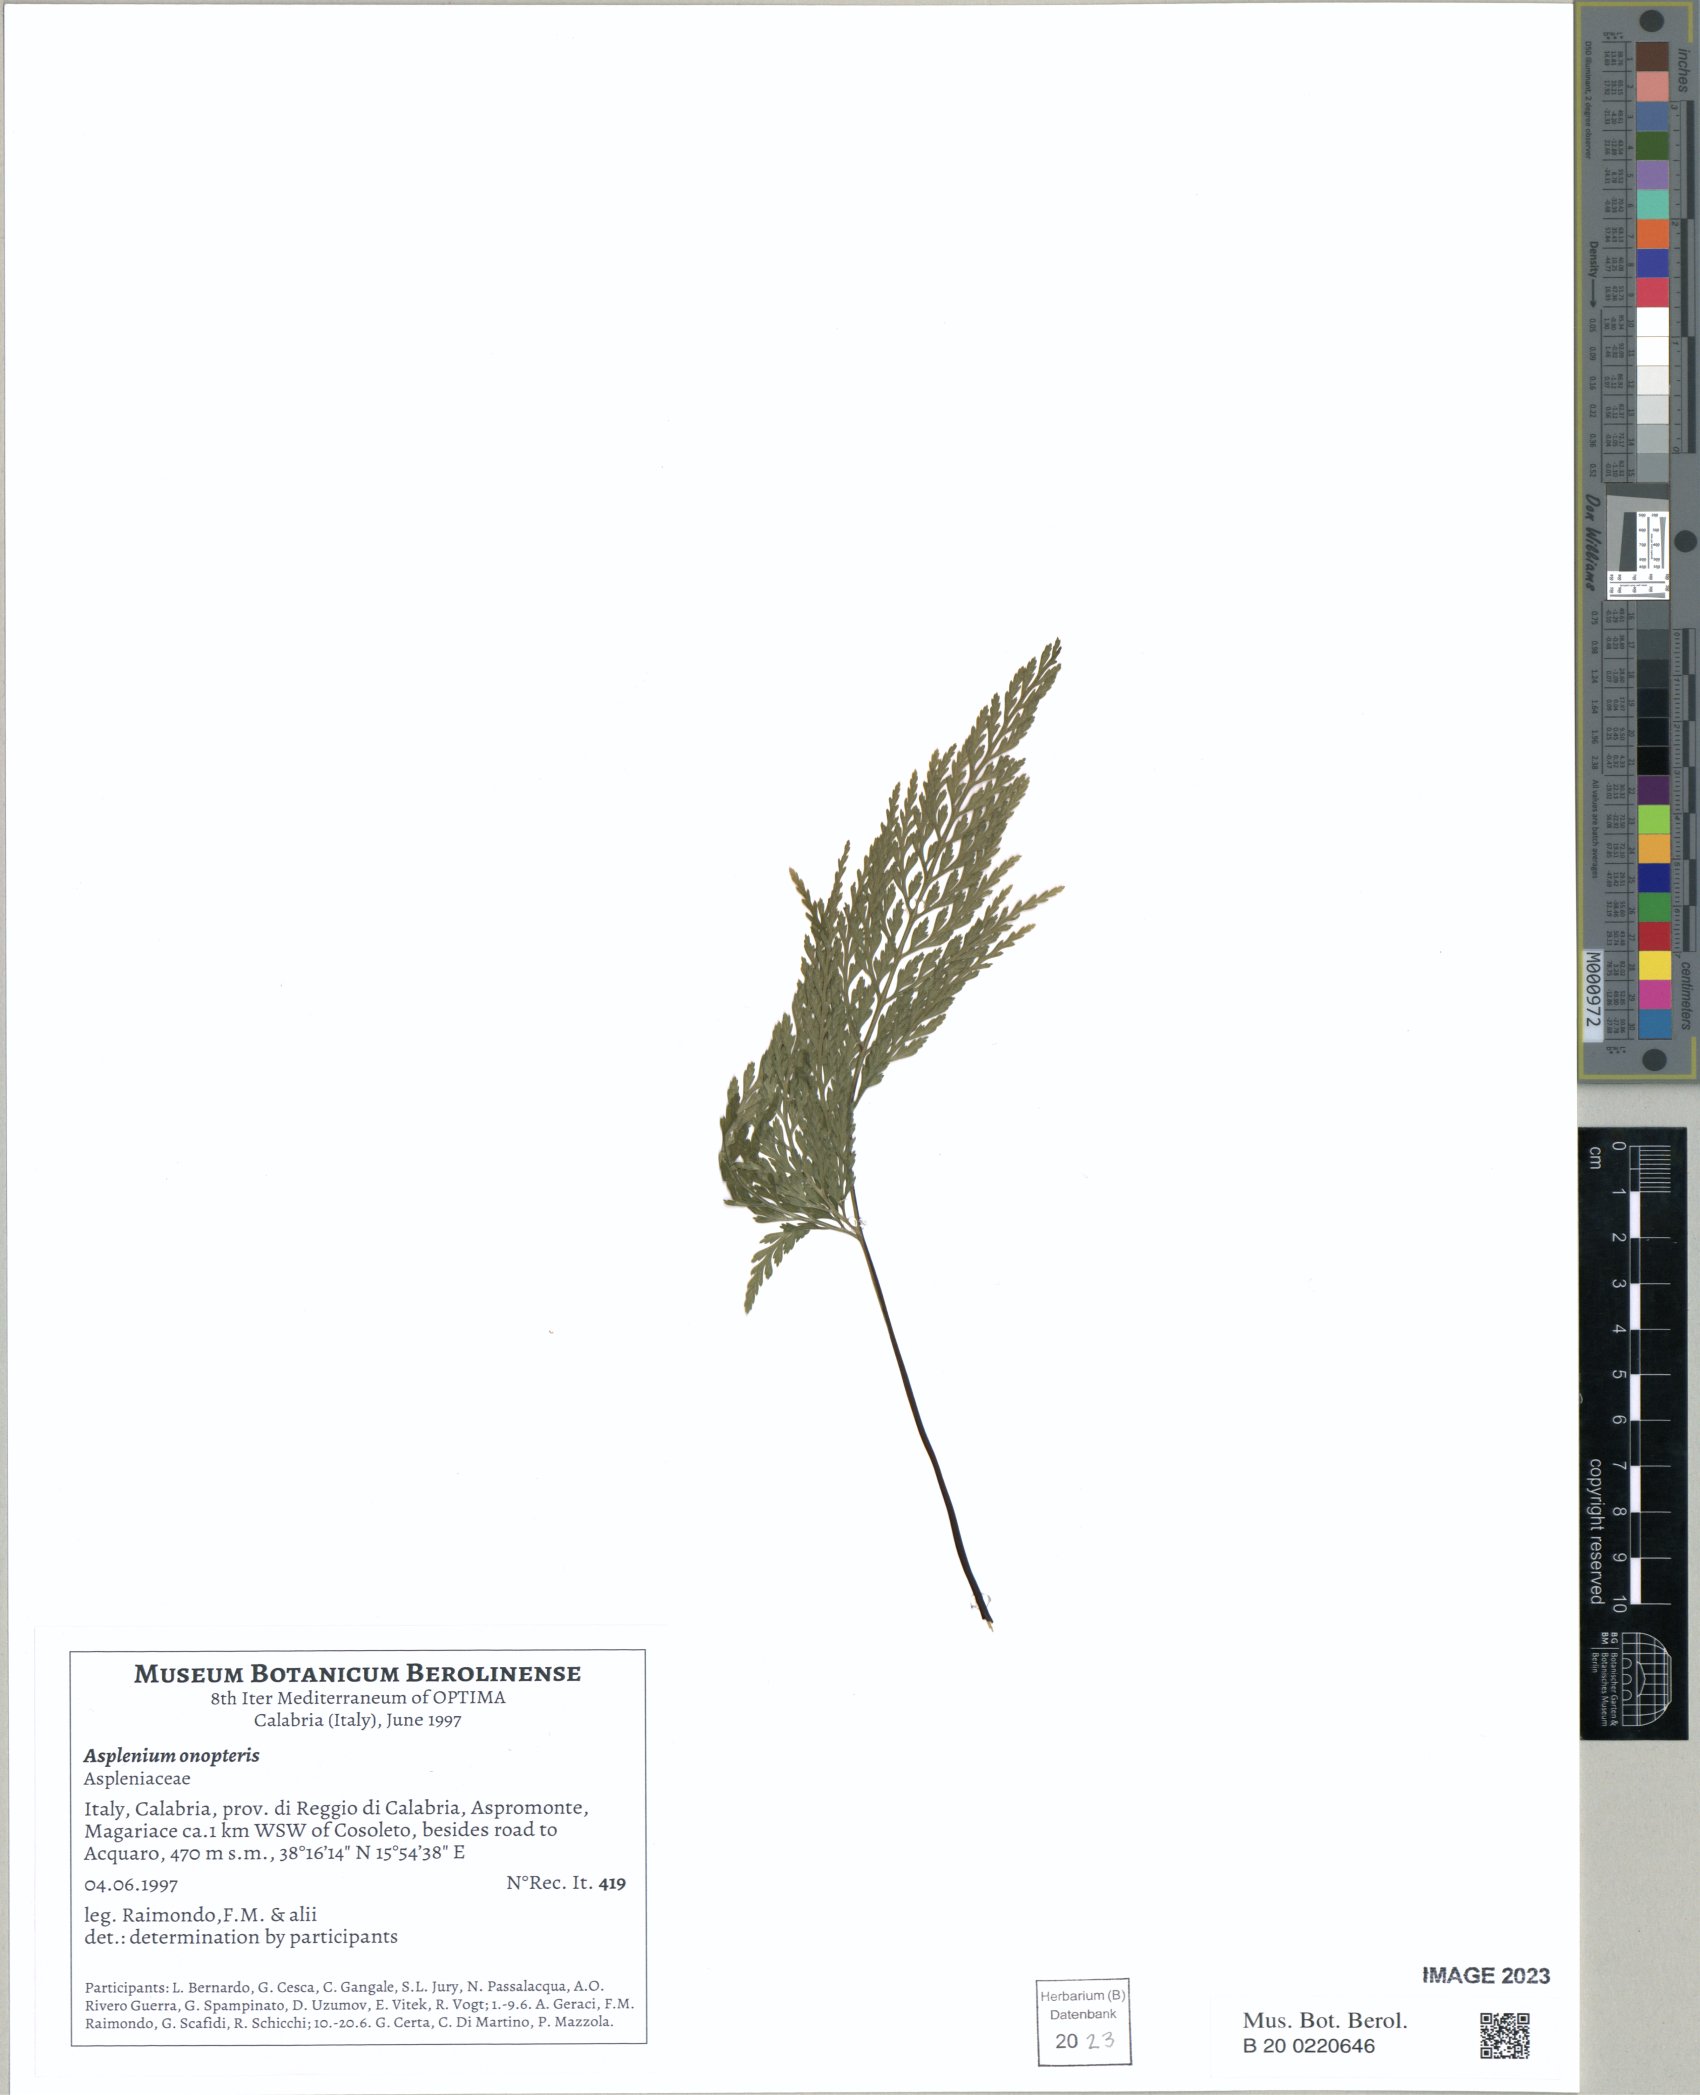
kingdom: Plantae
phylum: Tracheophyta
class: Polypodiopsida
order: Polypodiales
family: Aspleniaceae
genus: Asplenium
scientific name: Asplenium onopteris
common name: Irish spleenwort
